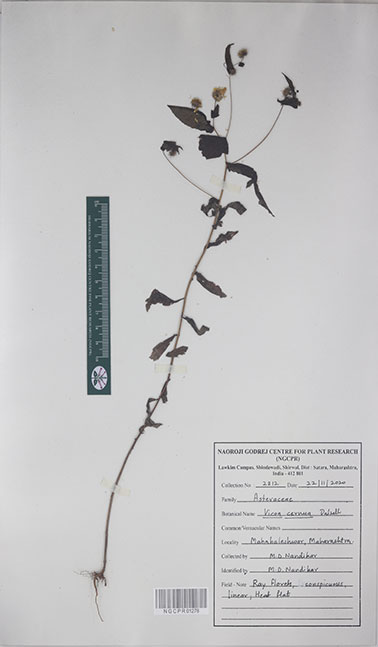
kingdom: Plantae
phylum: Tracheophyta
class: Magnoliopsida
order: Asterales
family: Asteraceae
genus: Vicoa
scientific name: Vicoa cernua
